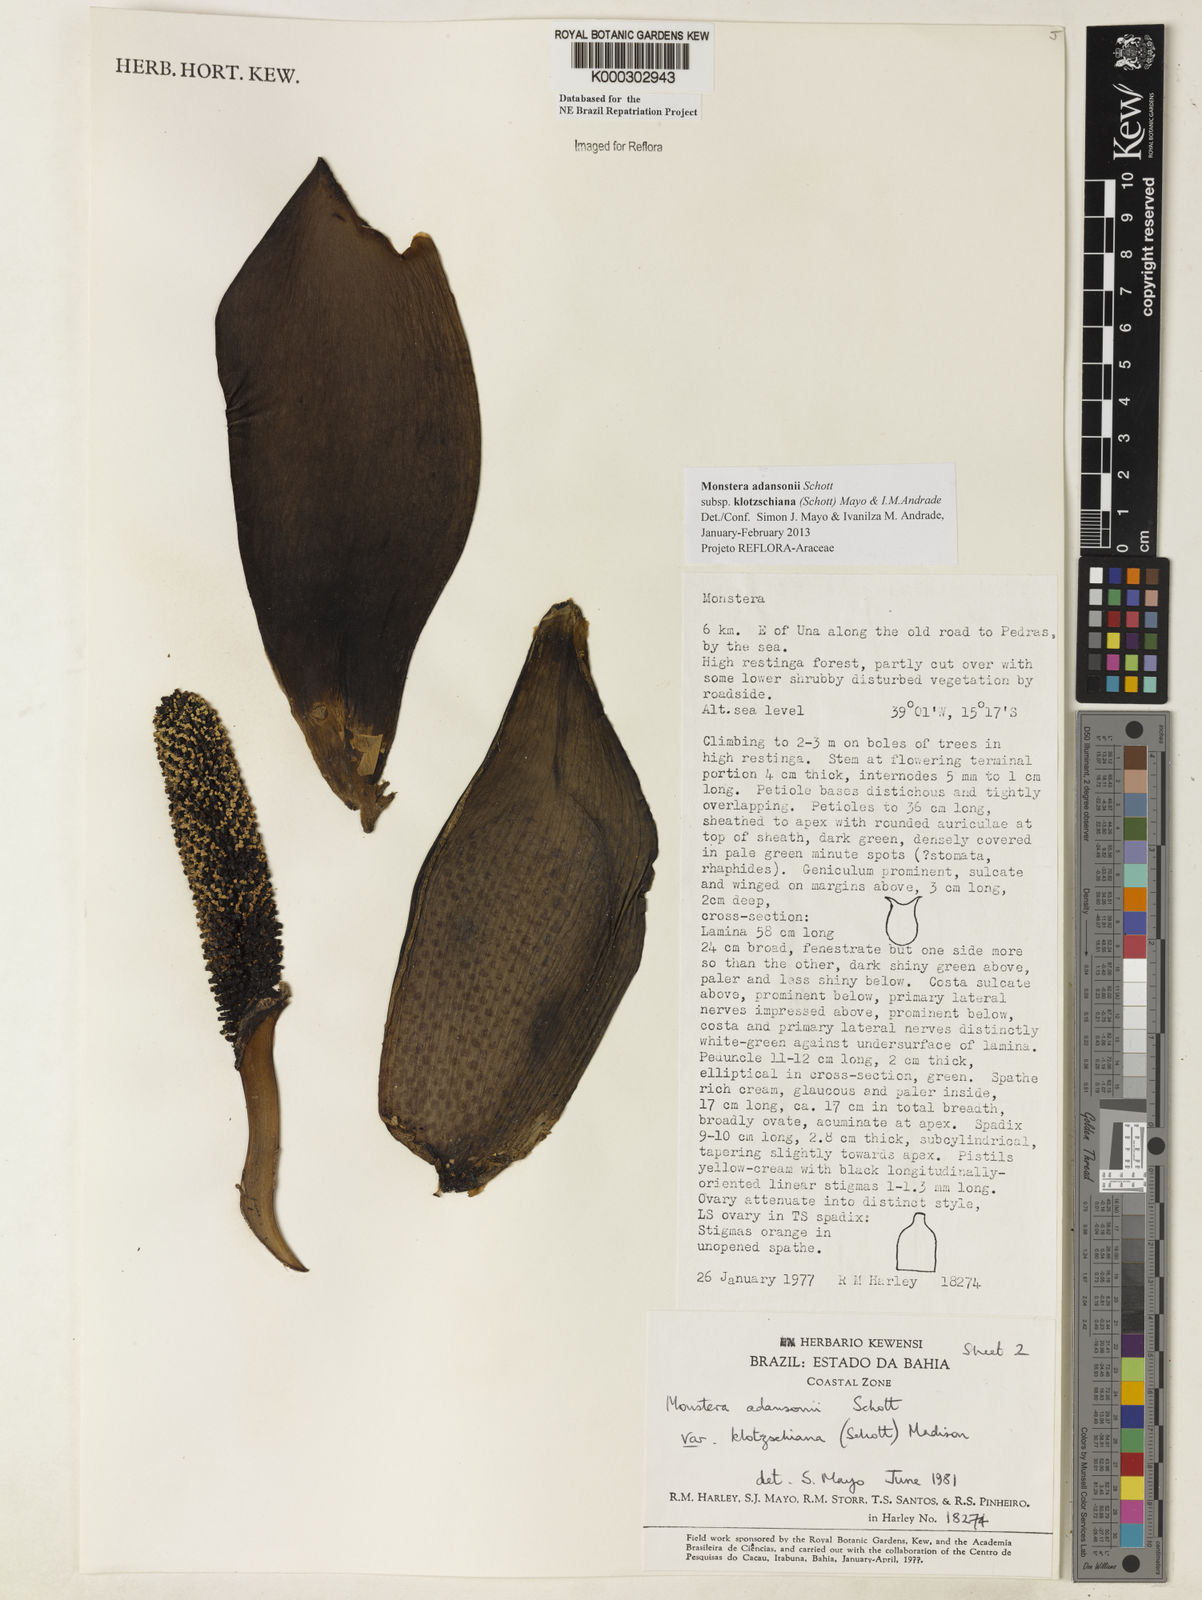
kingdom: Plantae
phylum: Tracheophyta
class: Liliopsida
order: Alismatales
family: Araceae
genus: Monstera
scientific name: Monstera adansonii
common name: Tarovine
